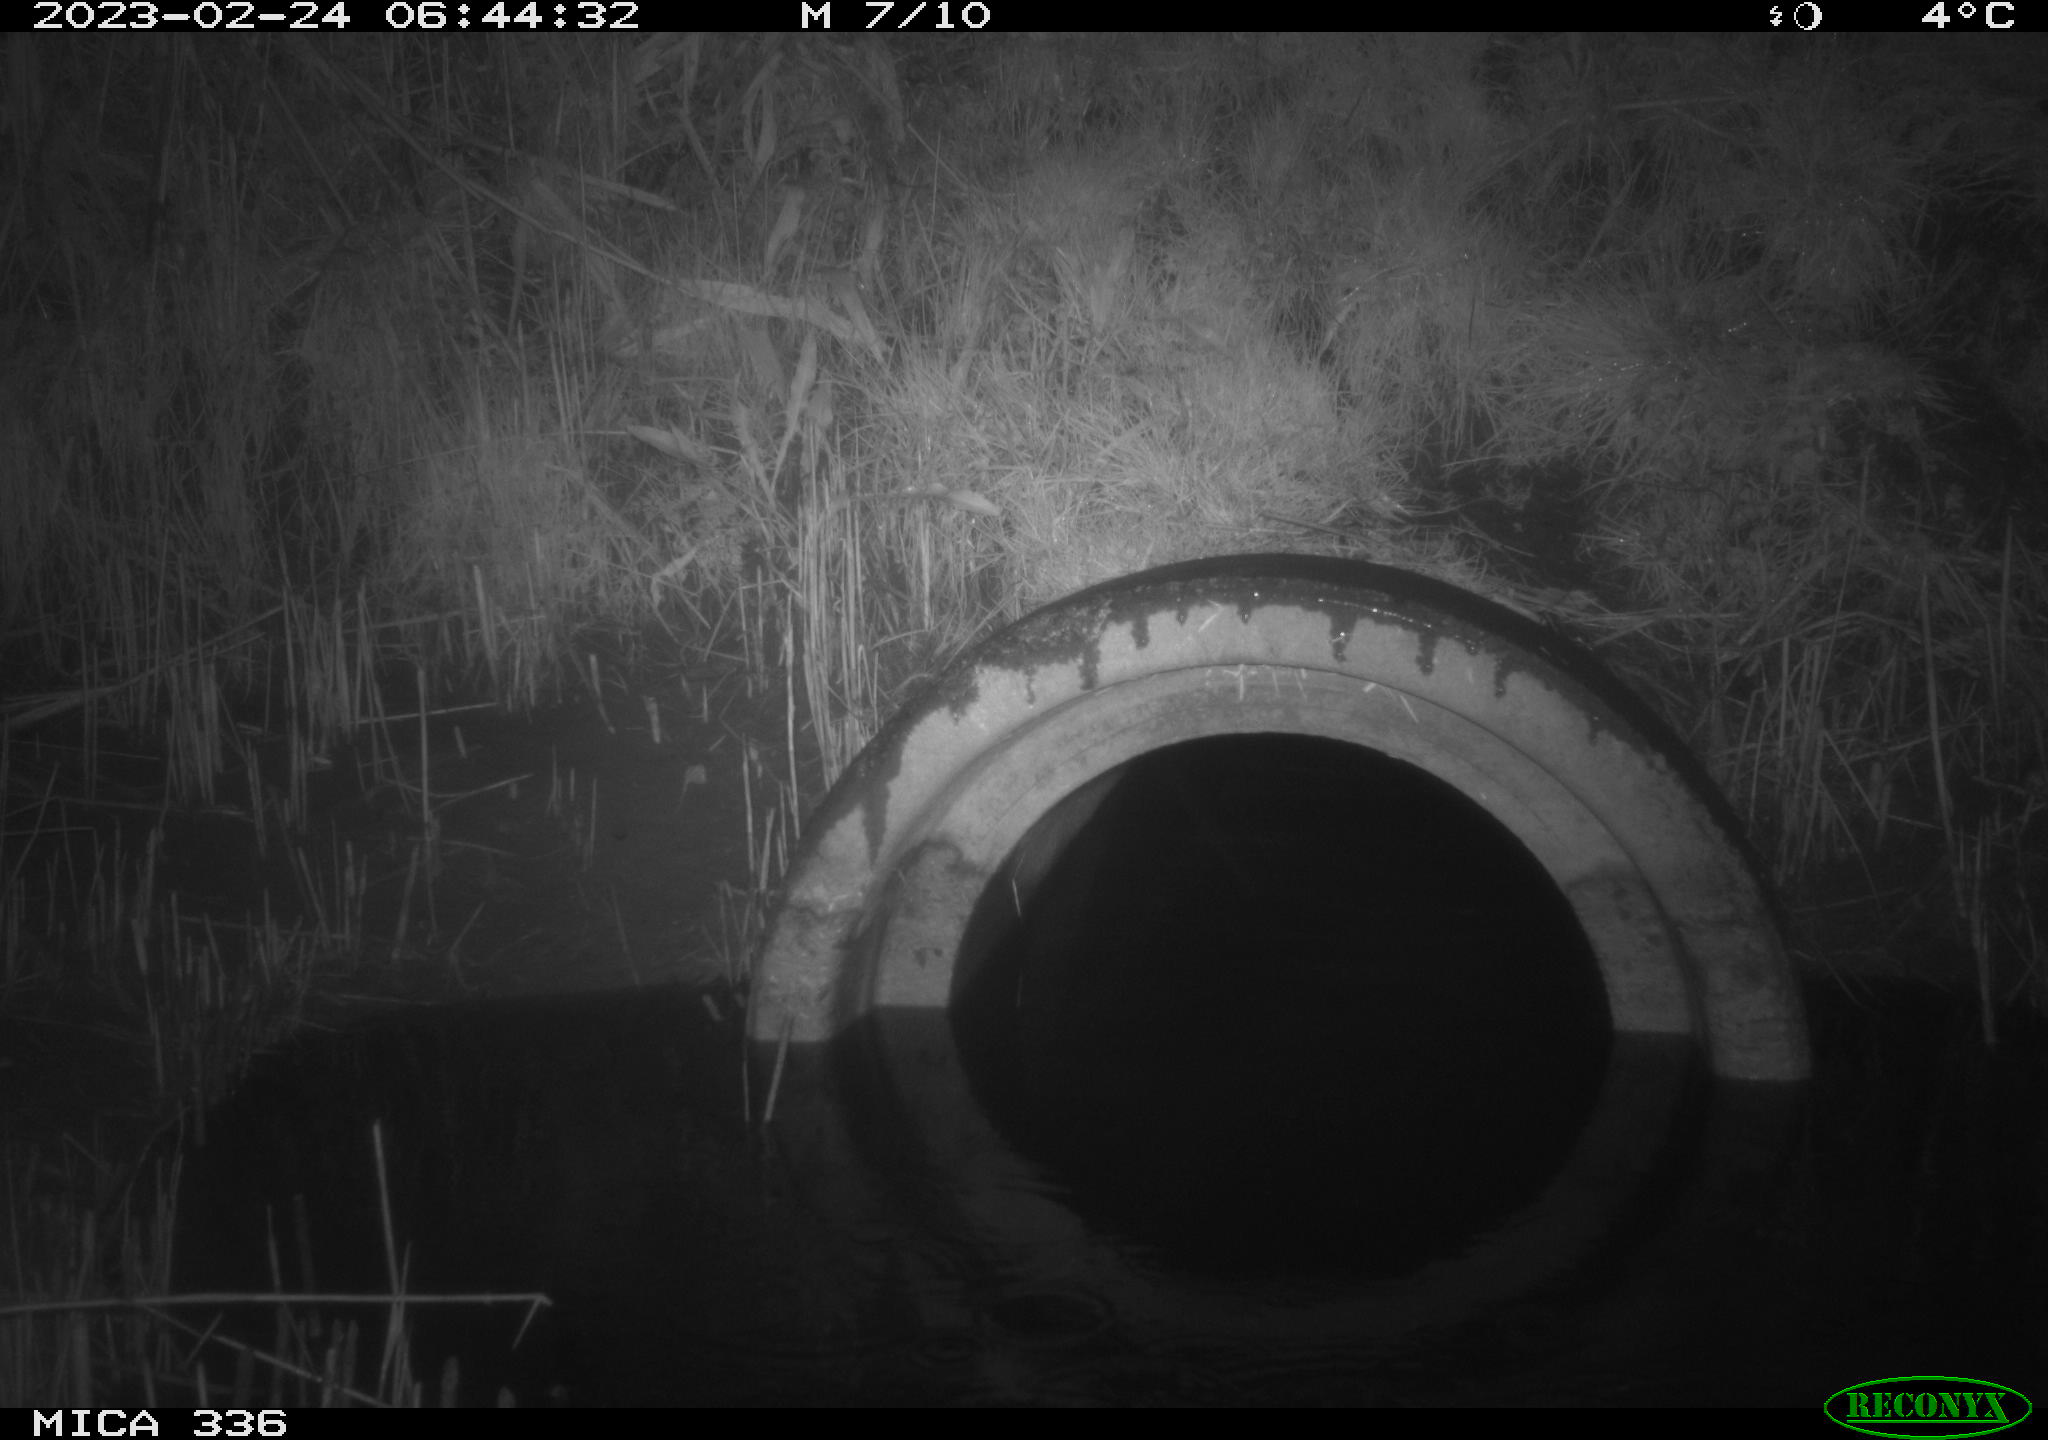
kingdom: Animalia
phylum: Chordata
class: Mammalia
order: Carnivora
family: Mustelidae
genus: Mustela
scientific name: Mustela nivalis
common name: Least weasel
